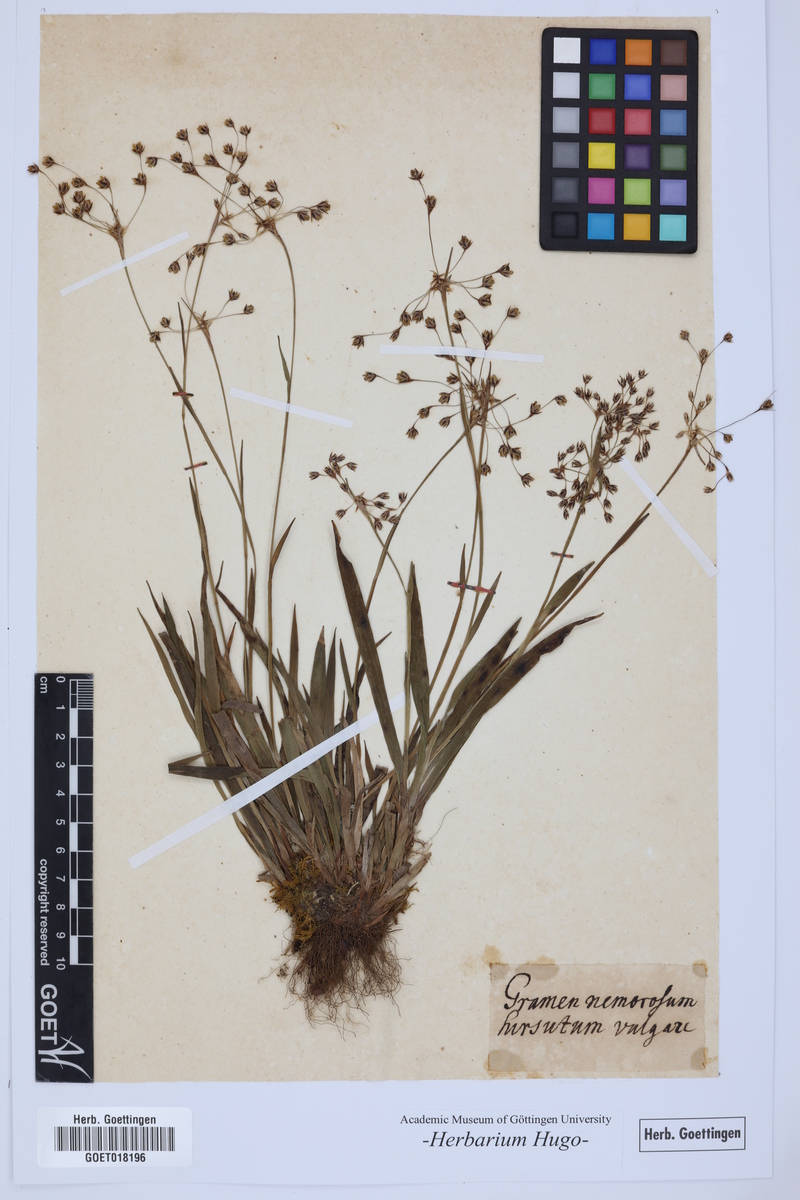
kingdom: Plantae
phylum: Tracheophyta
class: Liliopsida
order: Poales
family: Poaceae
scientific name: Poaceae
